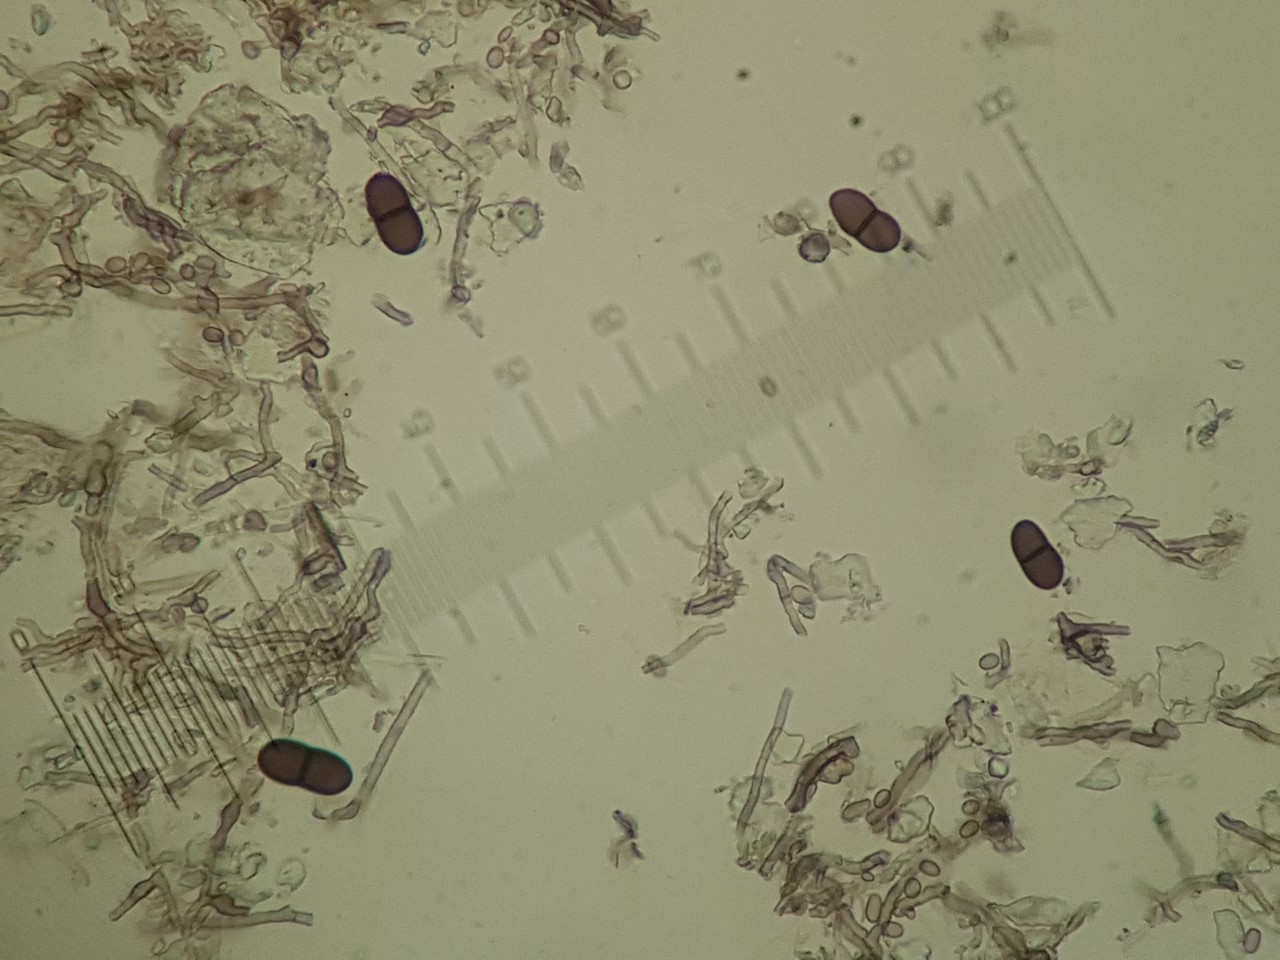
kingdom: Fungi
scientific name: Fungi
